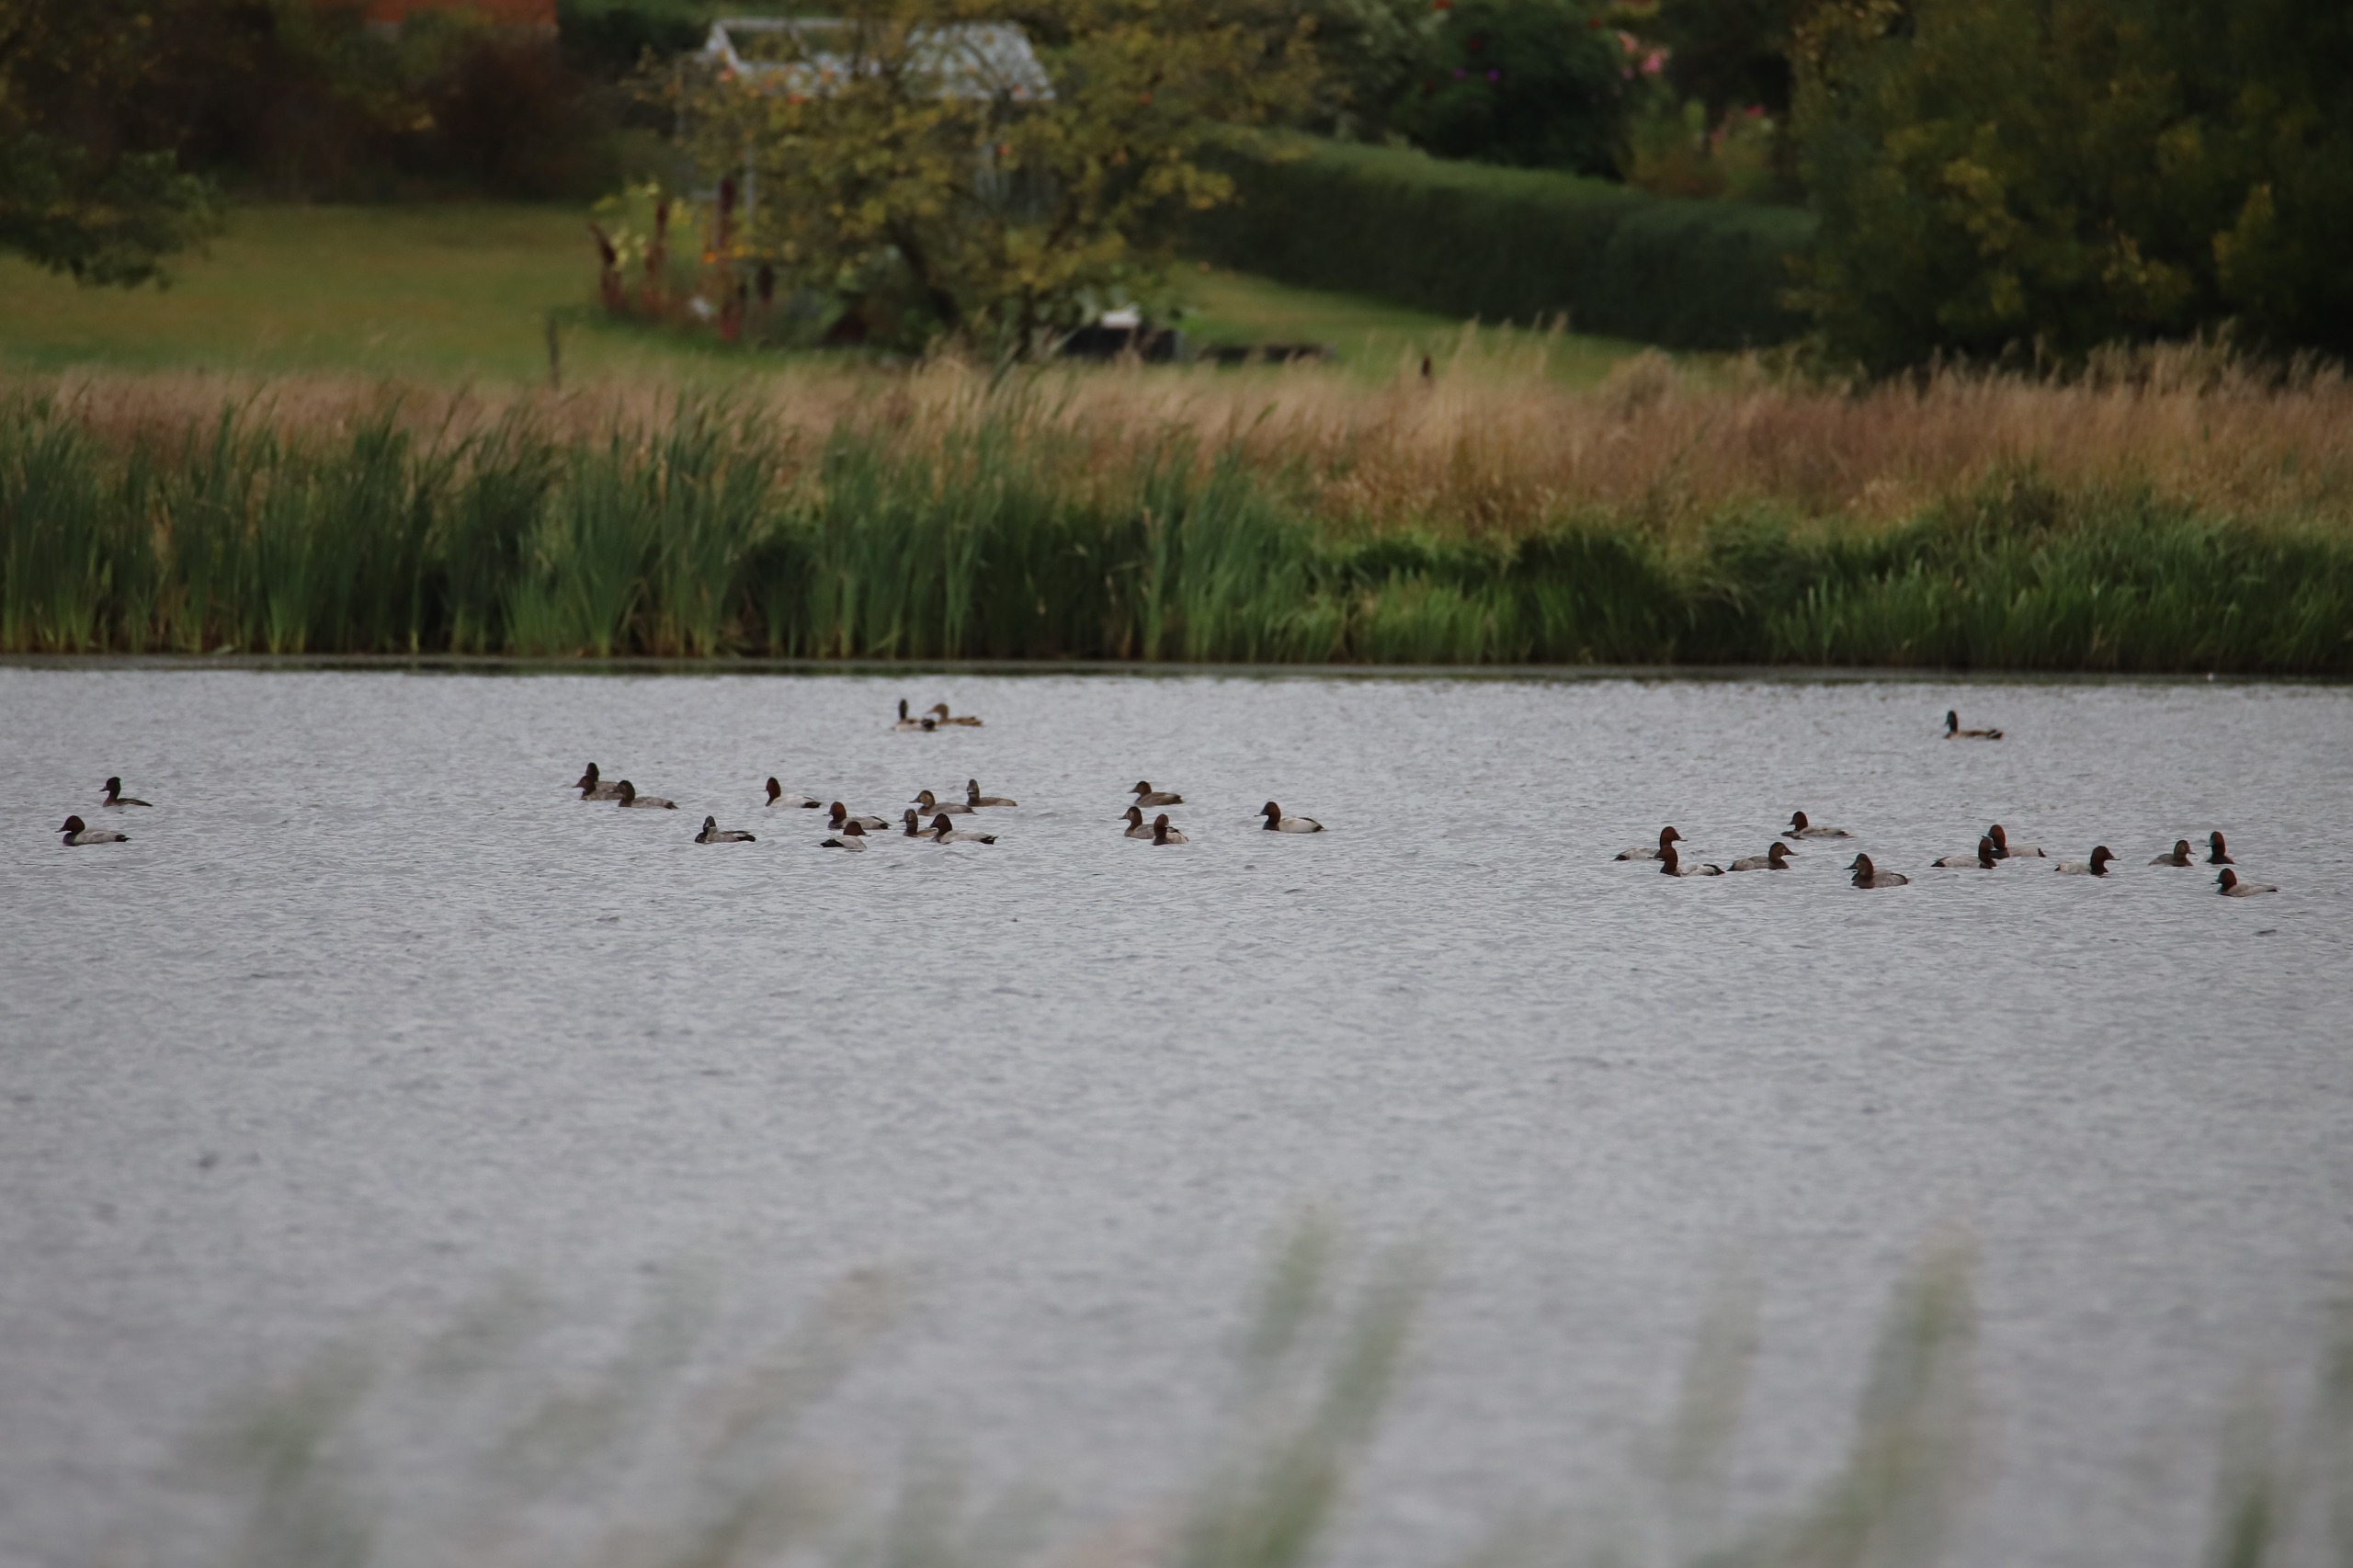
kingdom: Animalia
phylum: Chordata
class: Aves
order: Anseriformes
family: Anatidae
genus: Aythya
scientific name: Aythya ferina
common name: Taffeland
